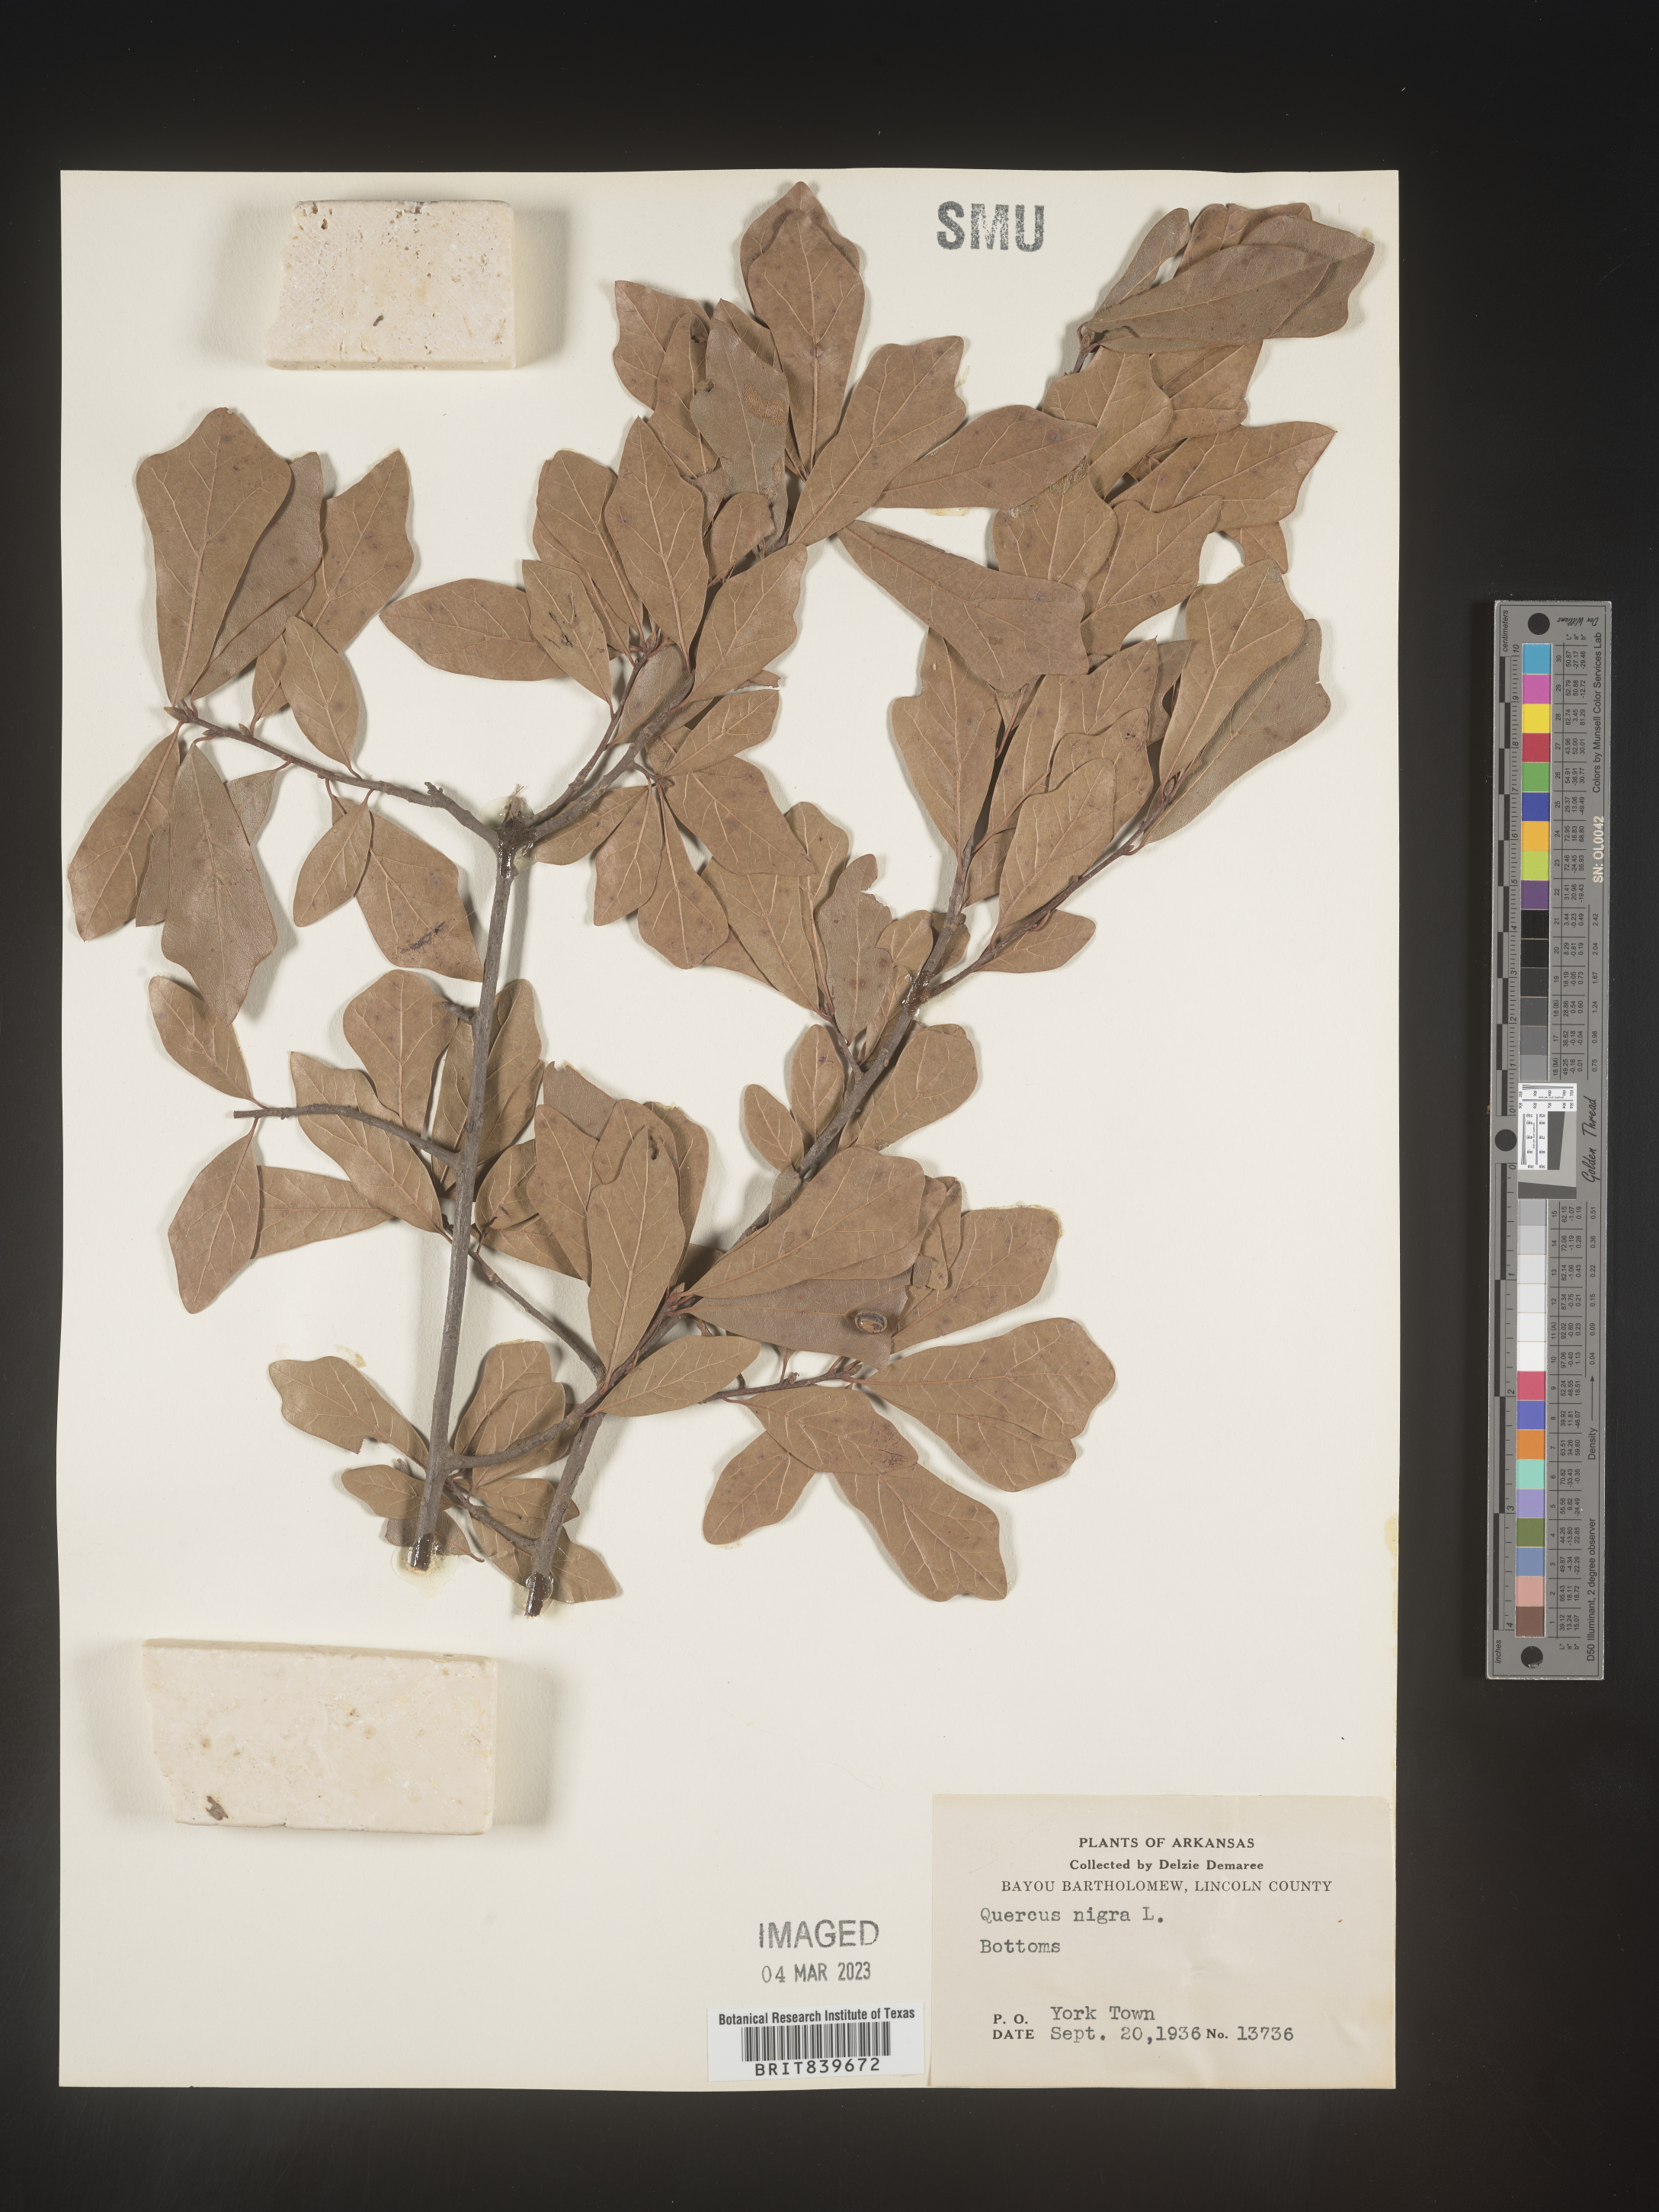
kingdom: Plantae
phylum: Tracheophyta
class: Magnoliopsida
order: Fagales
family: Fagaceae
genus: Quercus
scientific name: Quercus nigra
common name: Water oak
